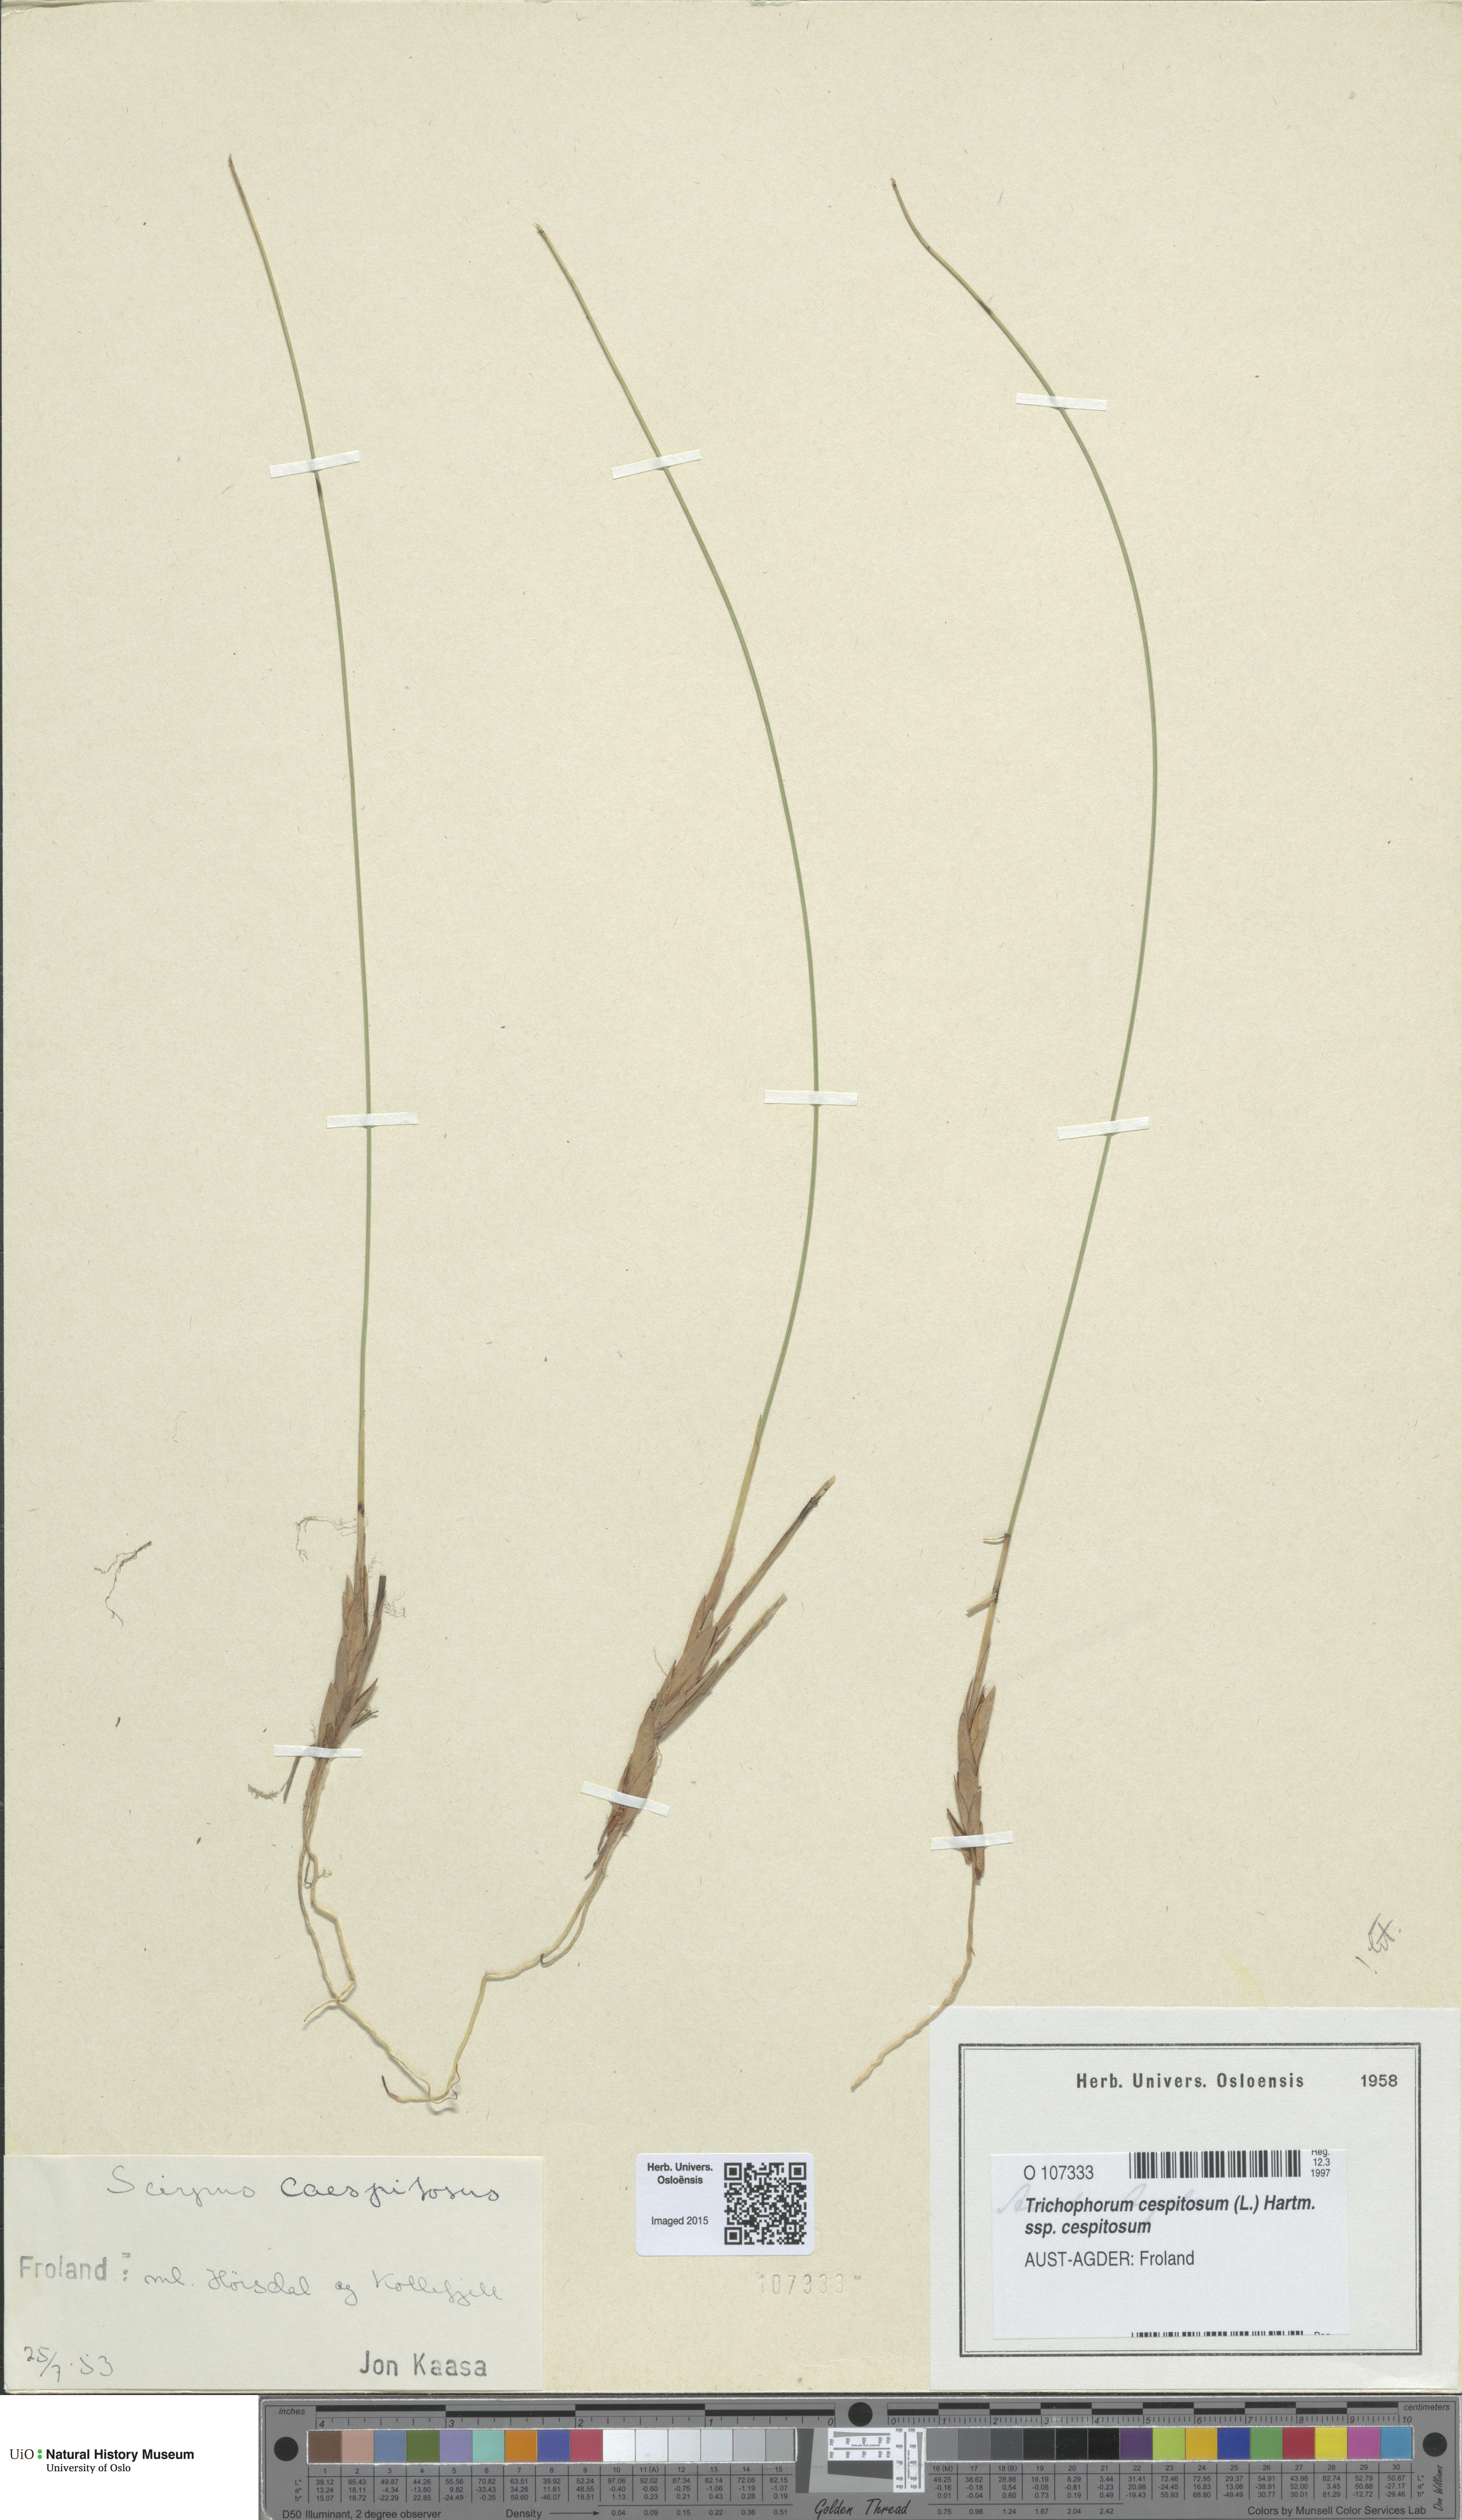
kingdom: Plantae
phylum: Tracheophyta
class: Liliopsida
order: Poales
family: Cyperaceae
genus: Trichophorum
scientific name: Trichophorum cespitosum
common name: Cespitose bulrush
